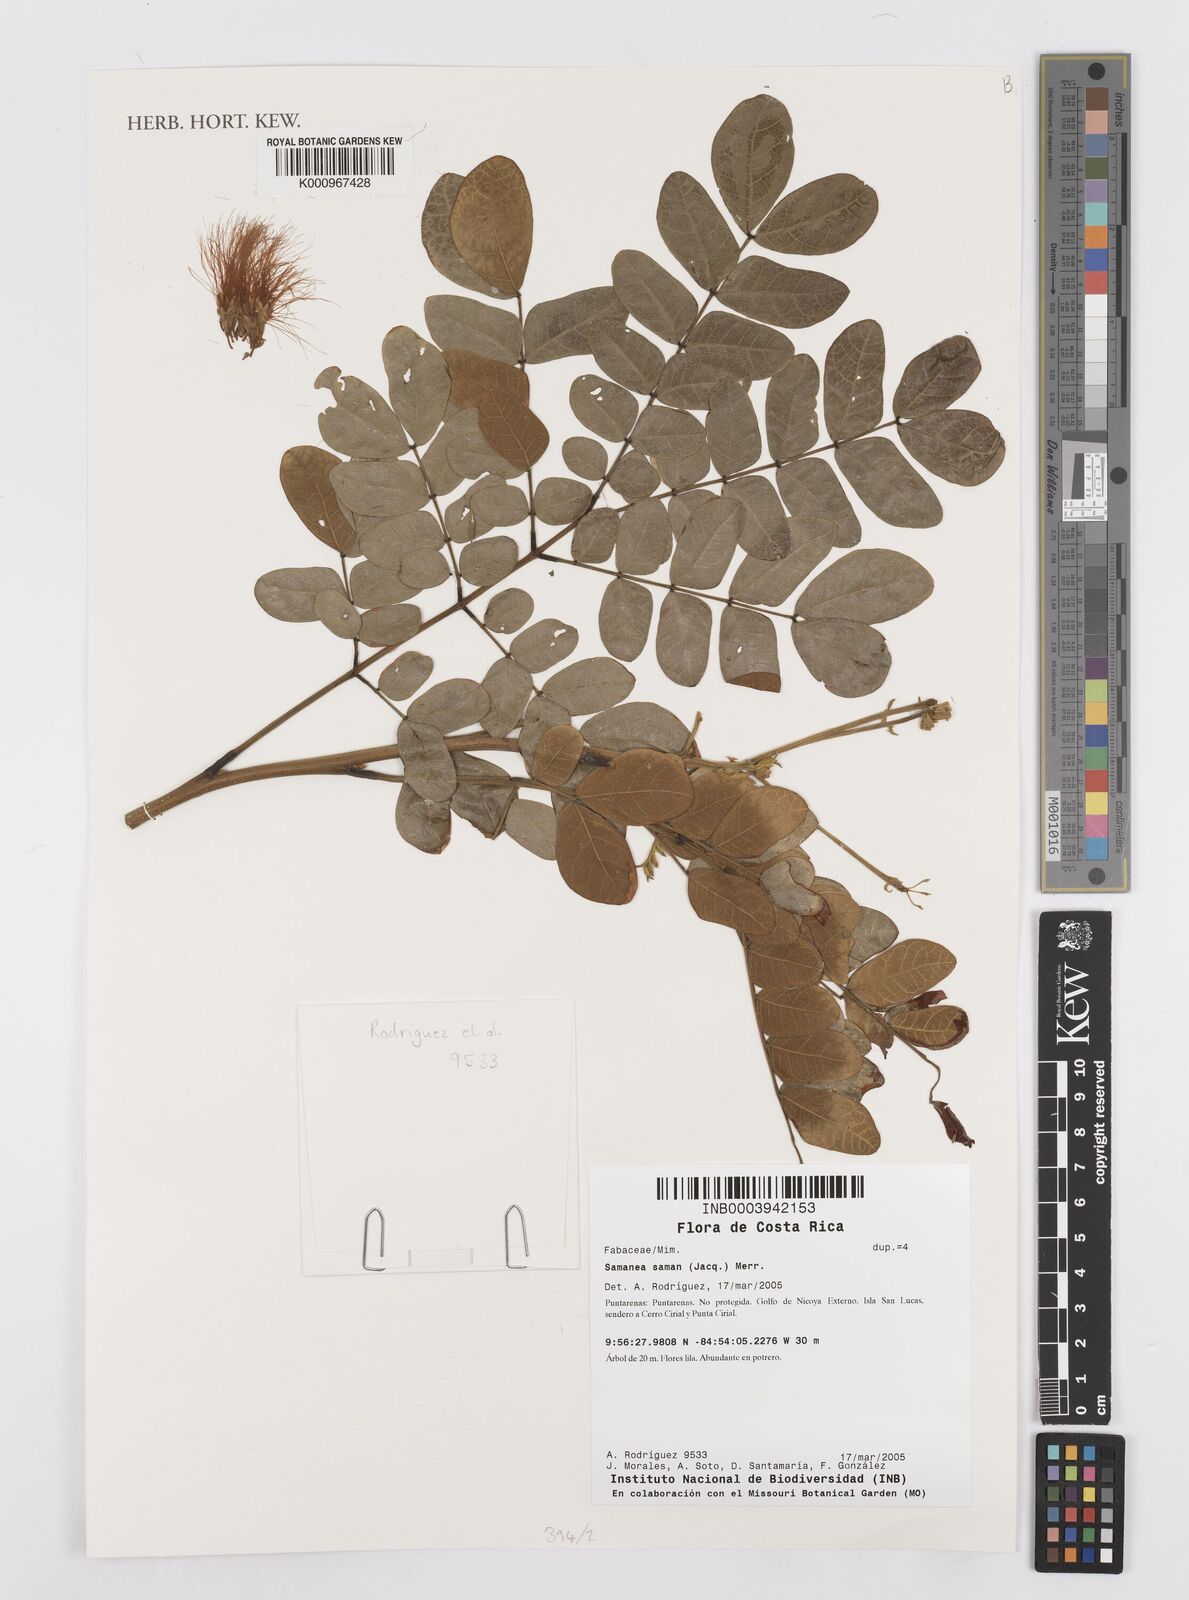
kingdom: Plantae
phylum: Tracheophyta
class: Magnoliopsida
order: Fabales
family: Fabaceae
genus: Samanea
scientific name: Samanea saman
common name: Raintree
